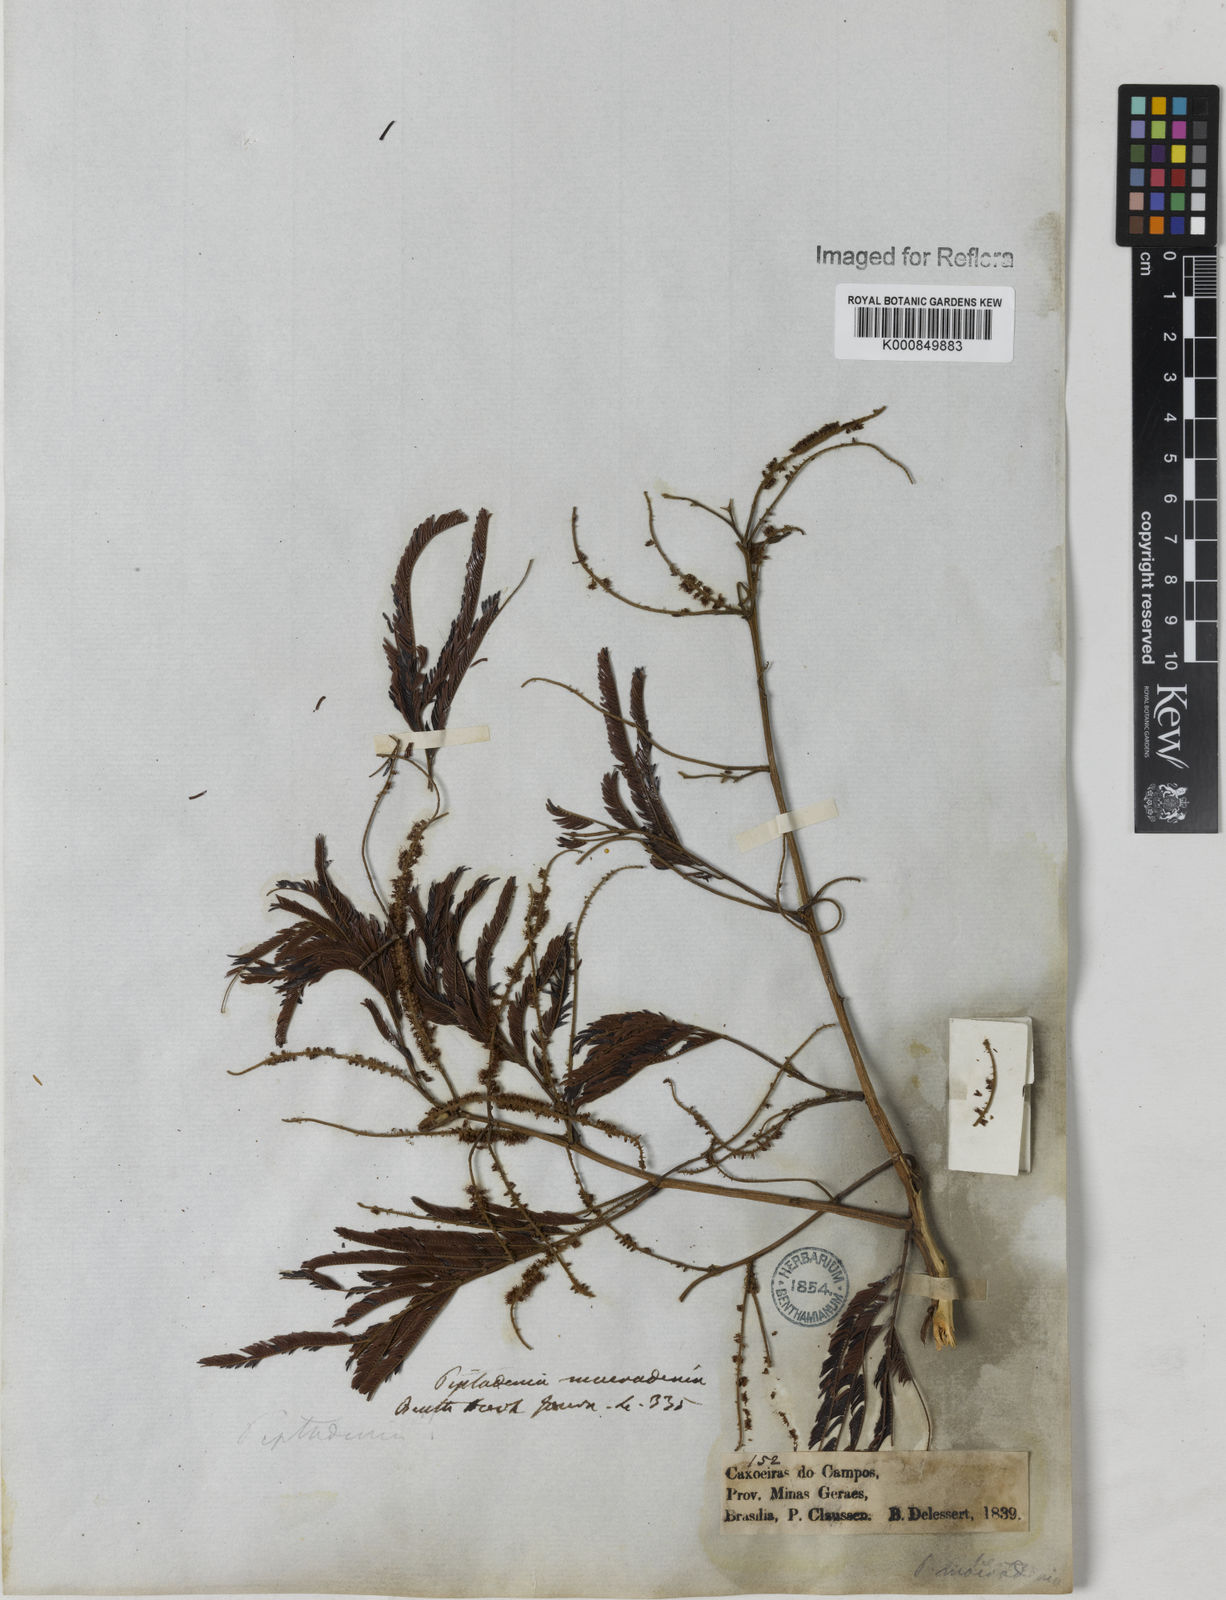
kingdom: Plantae
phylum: Tracheophyta
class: Magnoliopsida
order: Fabales
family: Fabaceae
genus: Piptadenia
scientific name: Piptadenia macradenia
